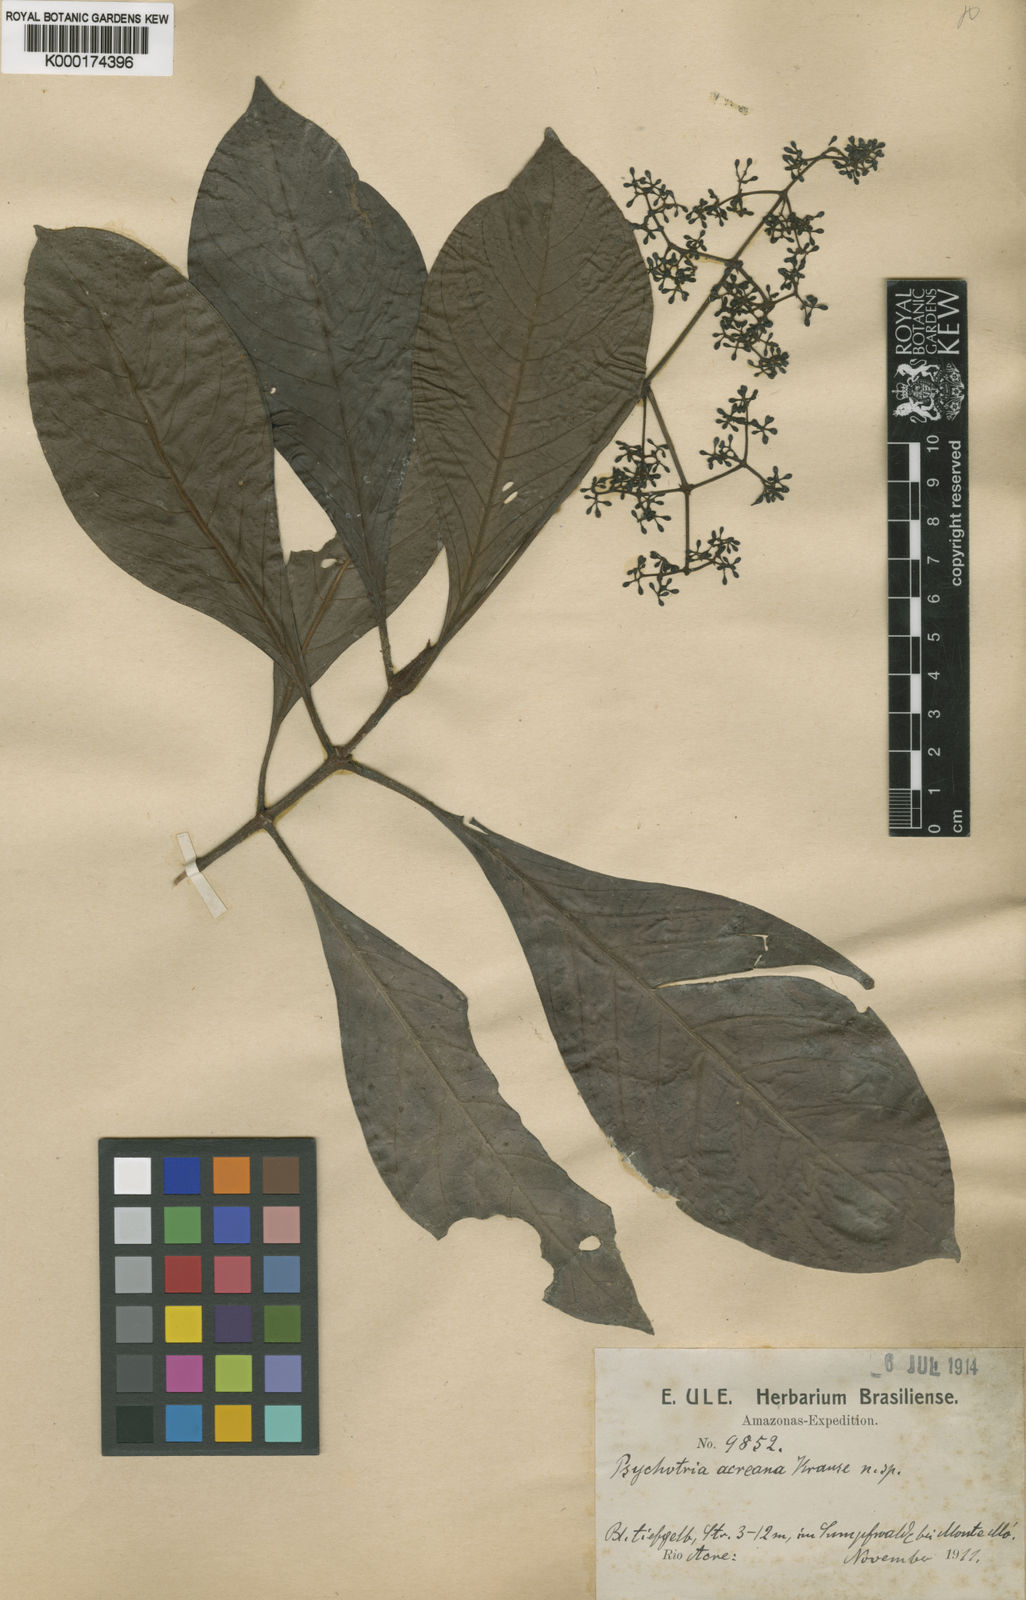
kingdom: Plantae
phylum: Tracheophyta
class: Magnoliopsida
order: Gentianales
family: Rubiaceae
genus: Psychotria
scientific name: Psychotria acreana
